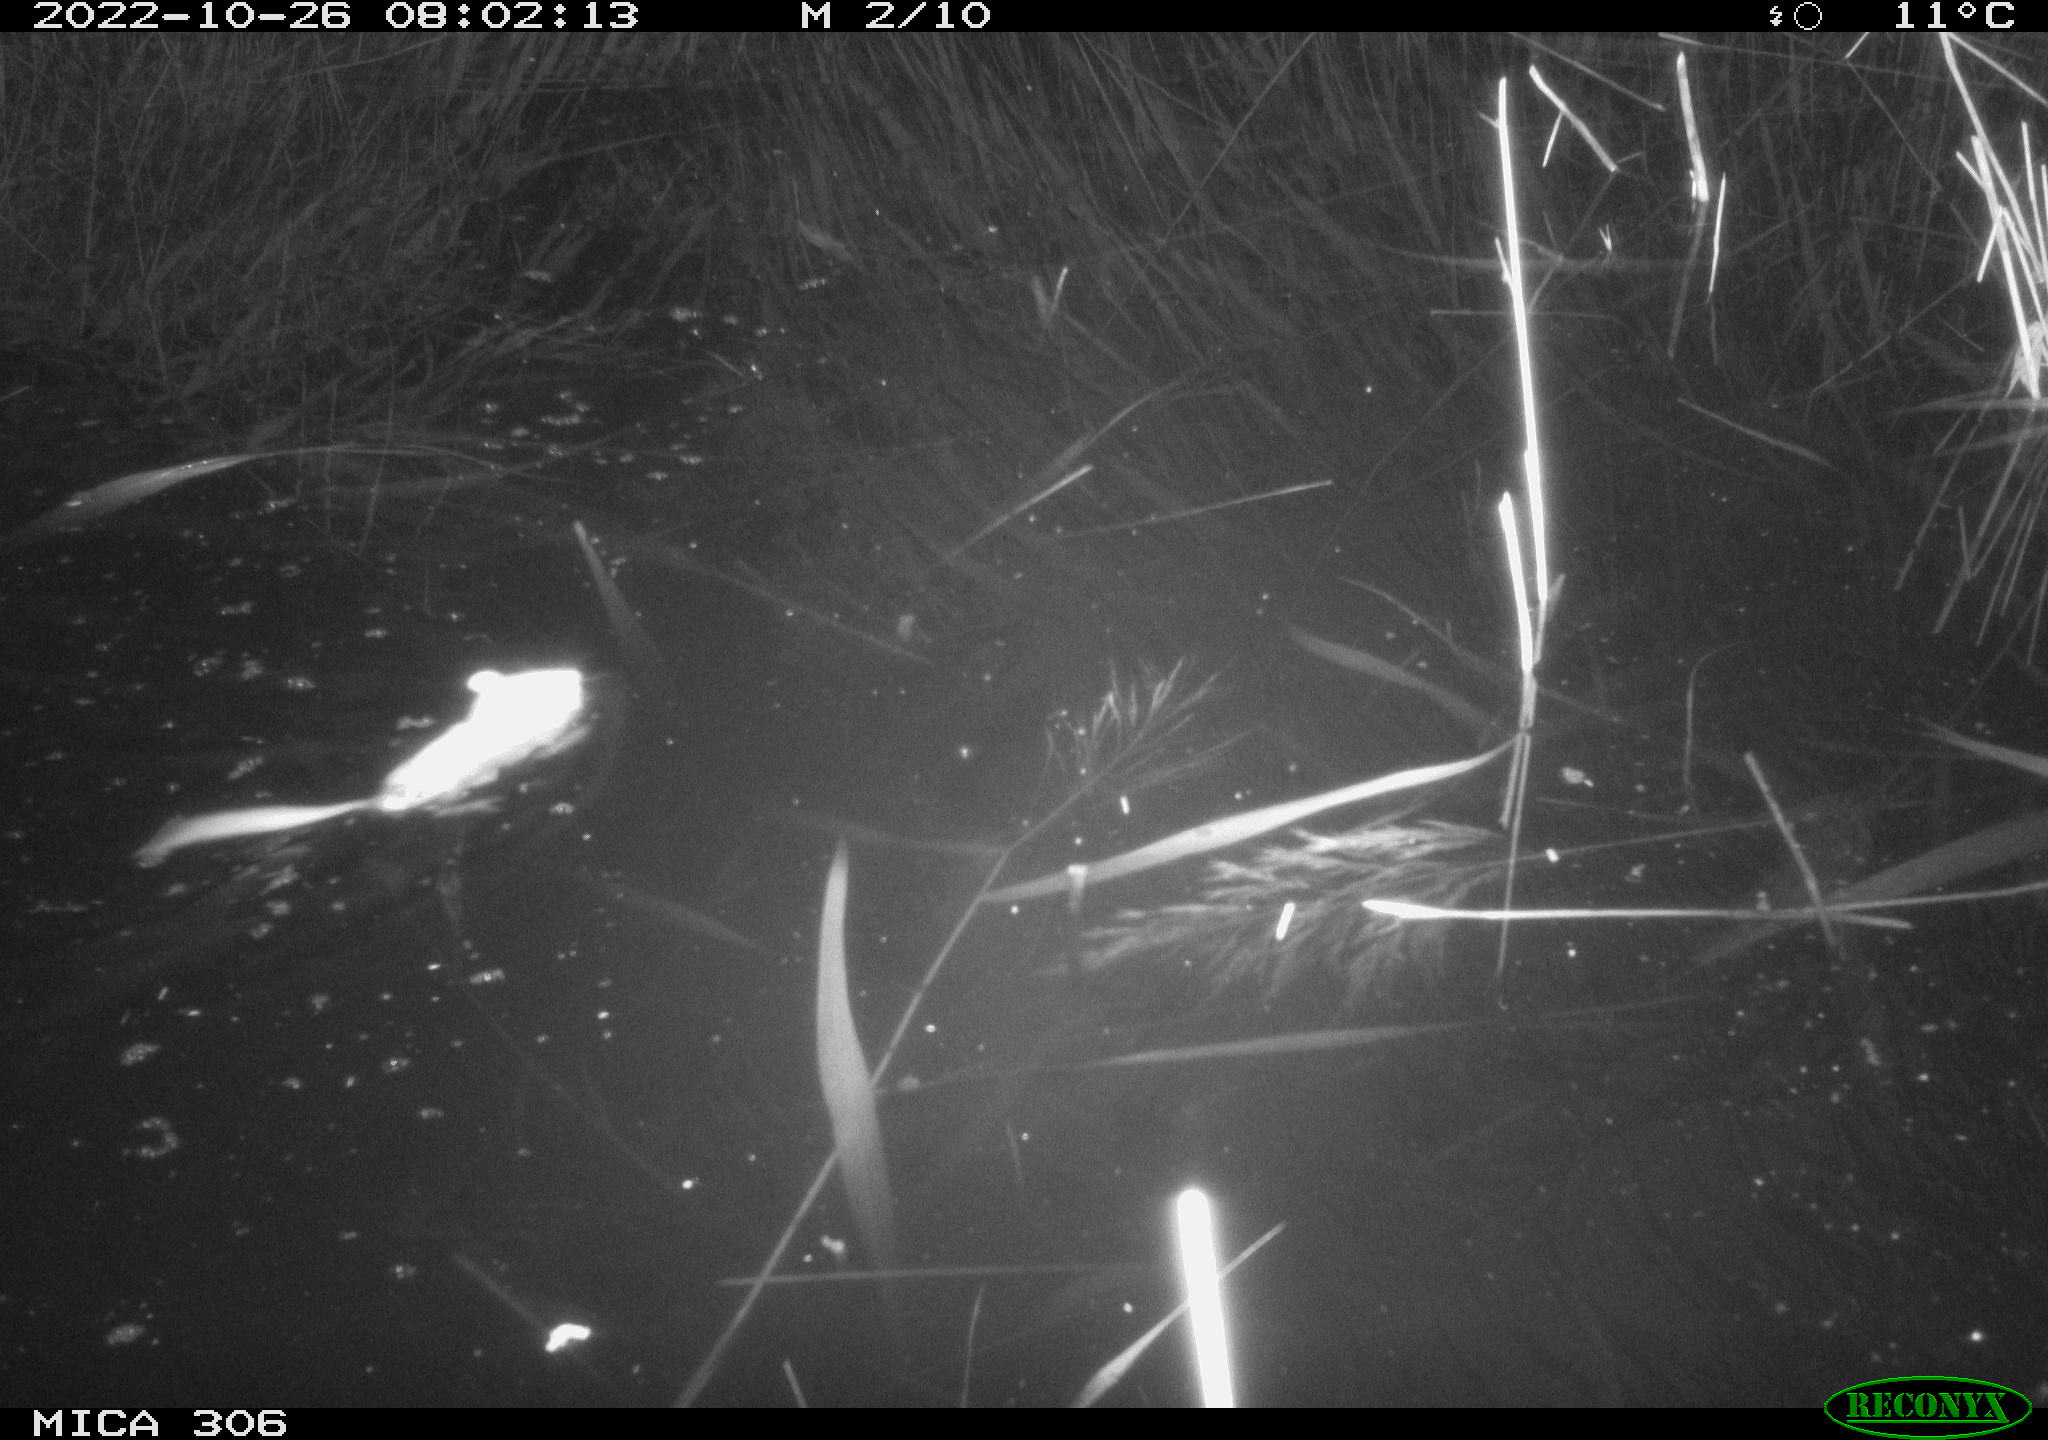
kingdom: Animalia
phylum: Chordata
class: Mammalia
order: Rodentia
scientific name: Rodentia
